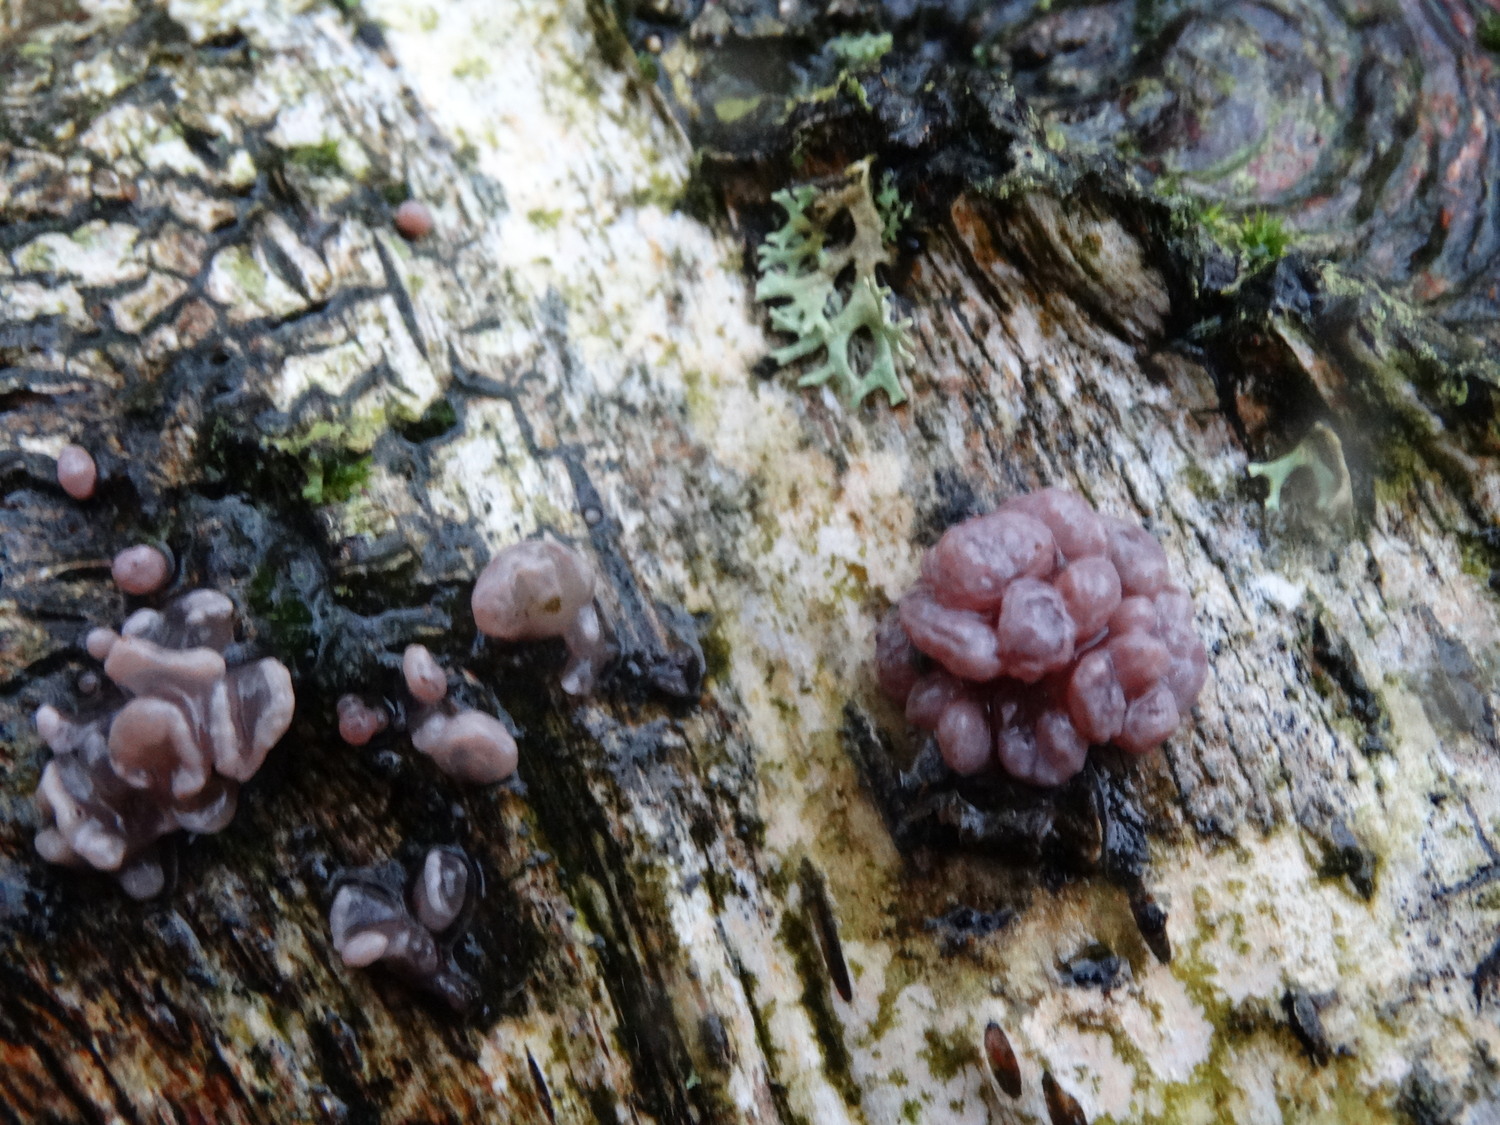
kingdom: Fungi
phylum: Ascomycota
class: Leotiomycetes
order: Helotiales
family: Gelatinodiscaceae
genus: Ascocoryne
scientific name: Ascocoryne sarcoides
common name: rødlilla sejskive
